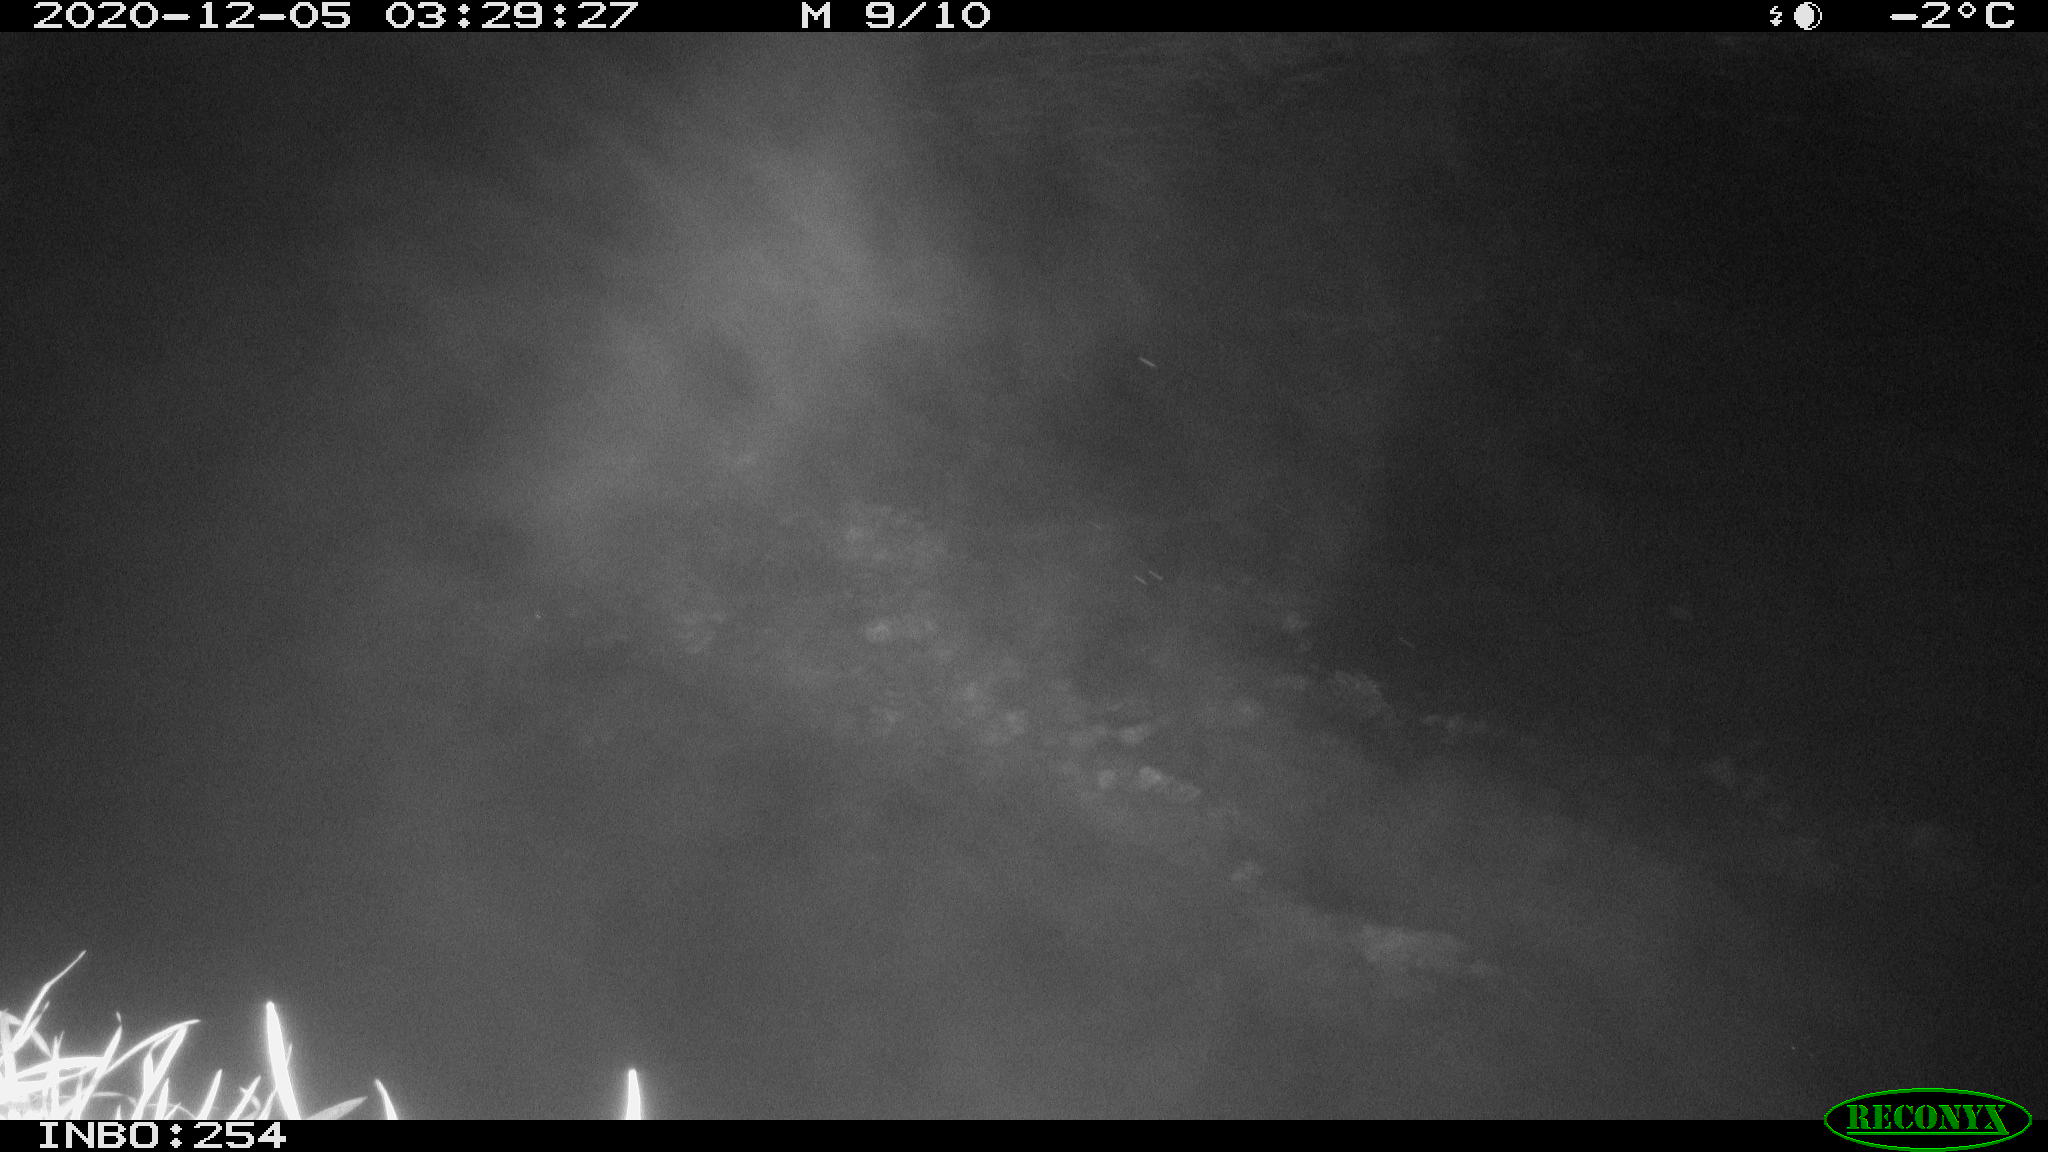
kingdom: Animalia
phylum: Chordata
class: Aves
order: Anseriformes
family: Anatidae
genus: Anas
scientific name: Anas platyrhynchos
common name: Mallard
